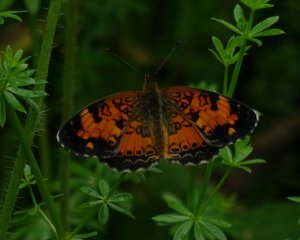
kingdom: Animalia
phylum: Arthropoda
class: Insecta
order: Lepidoptera
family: Nymphalidae
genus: Phyciodes
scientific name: Phyciodes tharos
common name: Pearl Crescent
